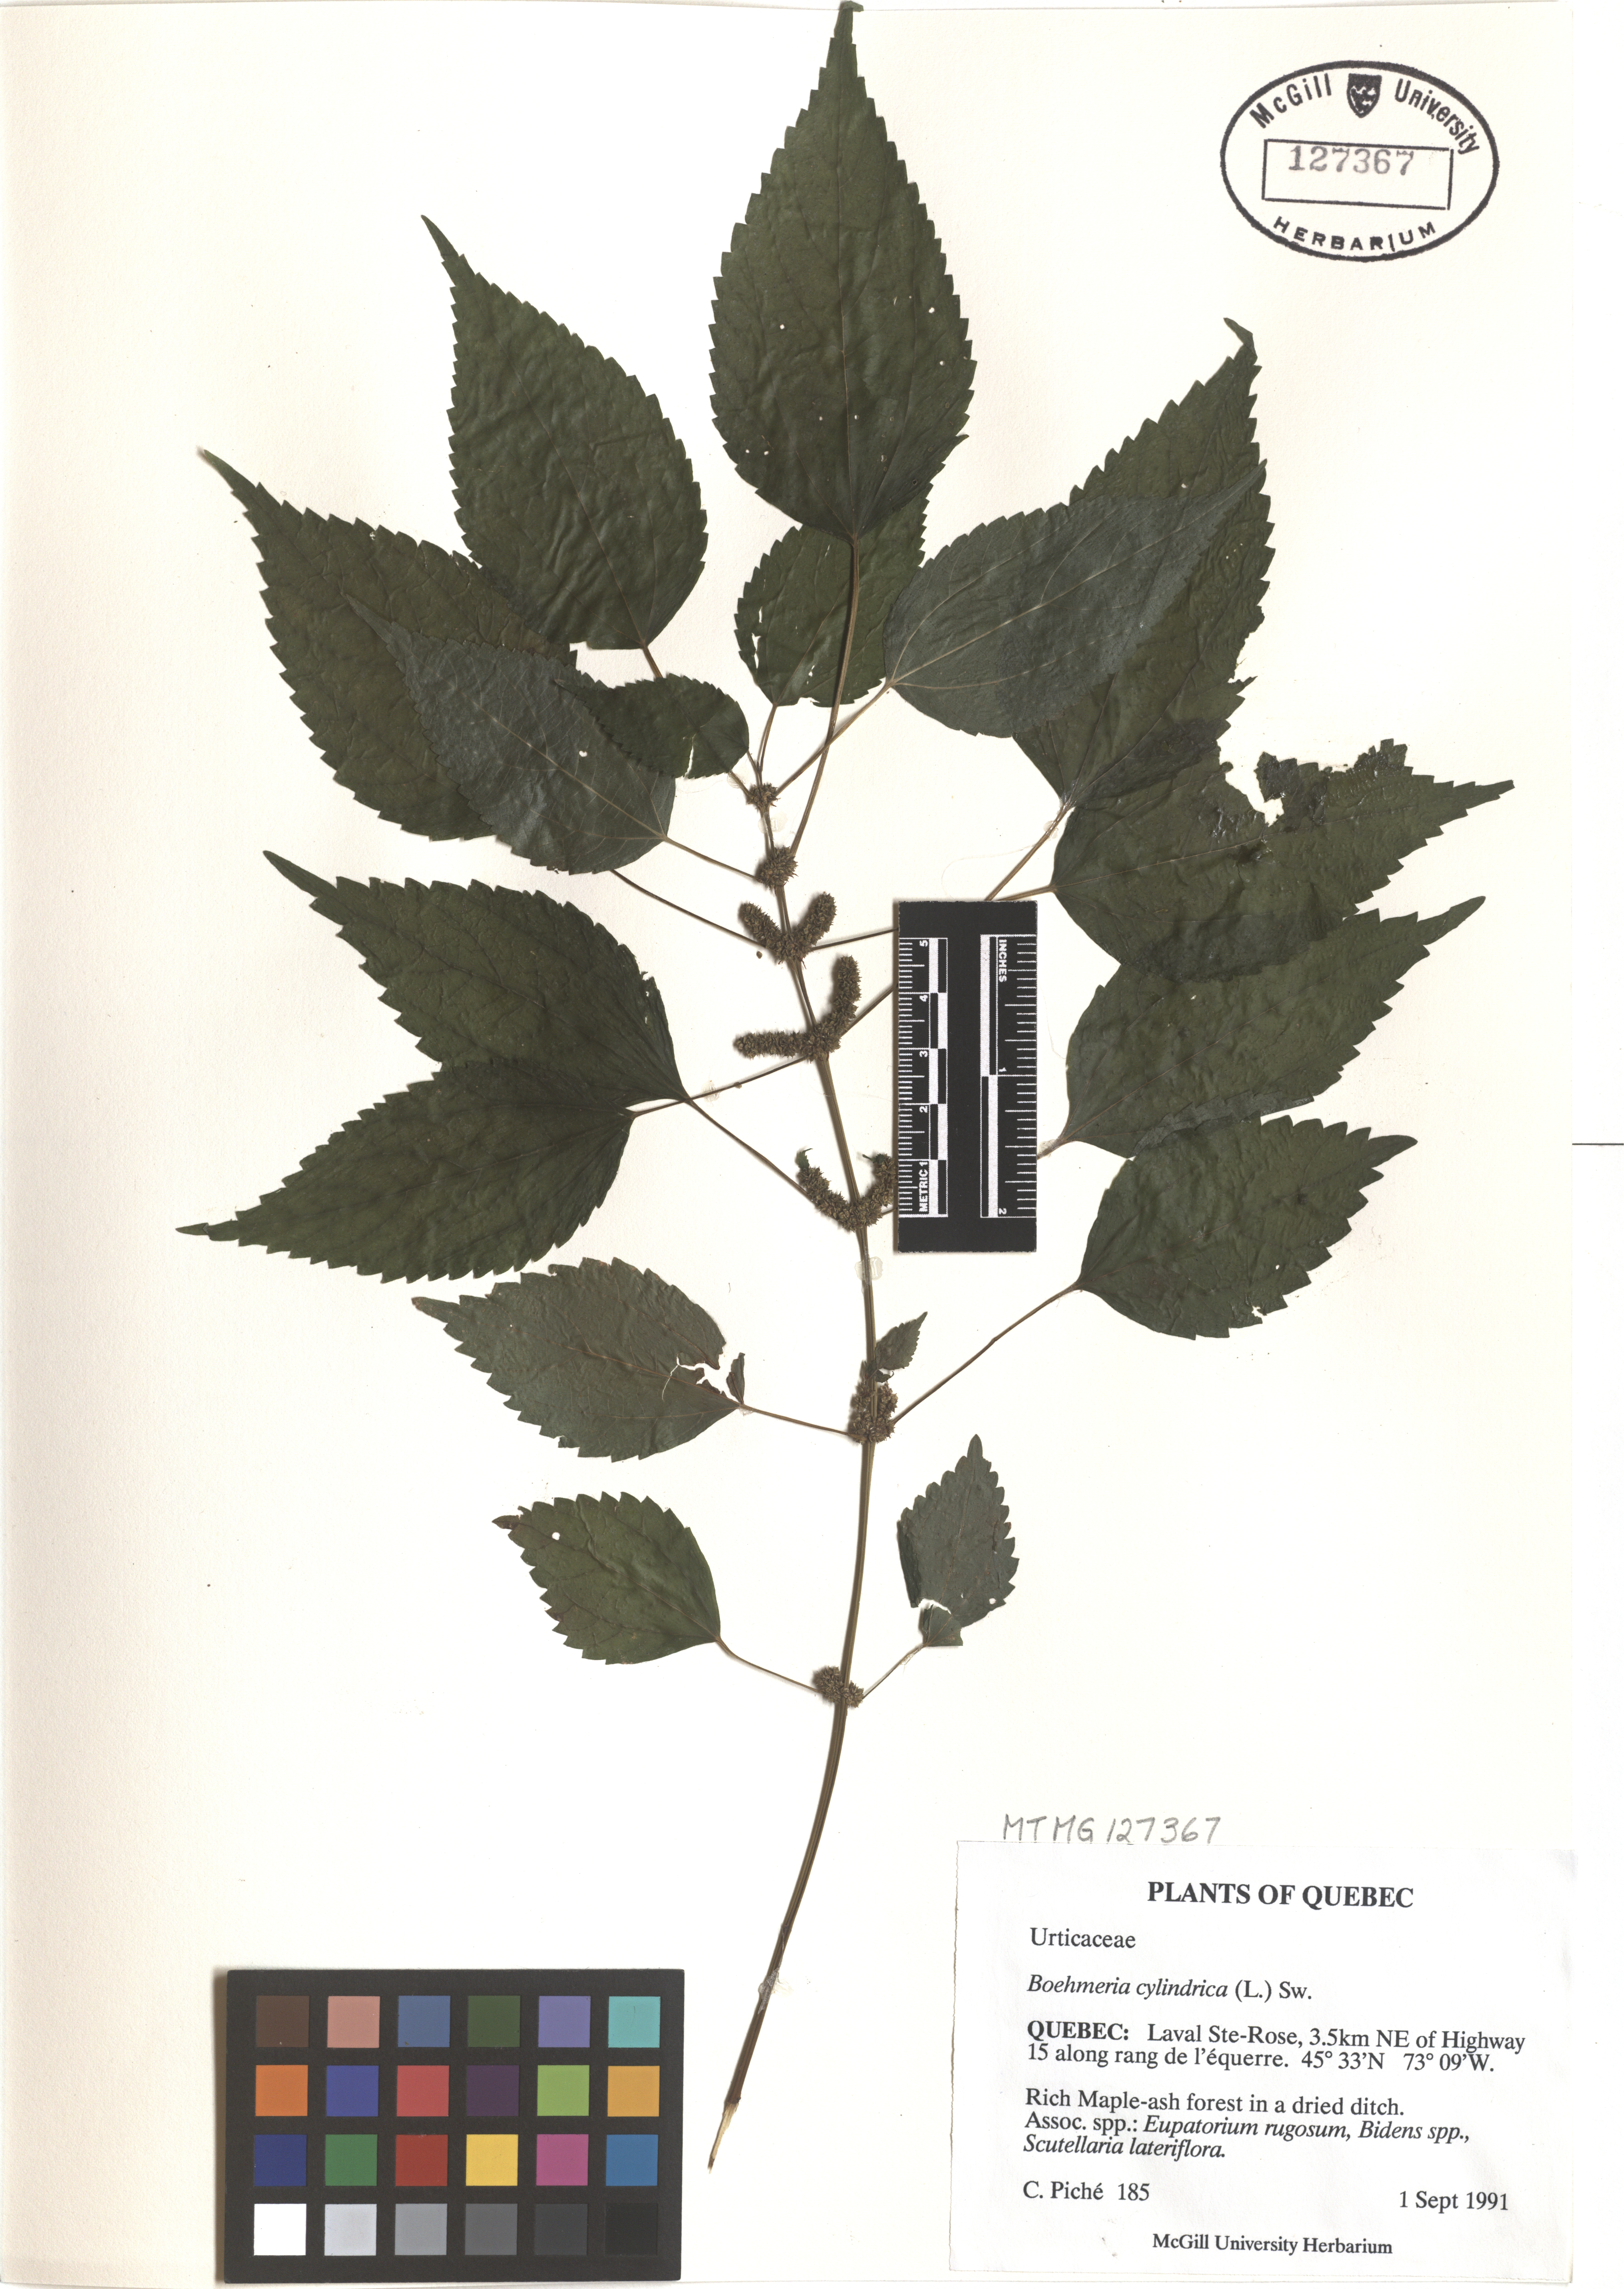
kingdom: Plantae
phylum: Tracheophyta
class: Magnoliopsida
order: Rosales
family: Urticaceae
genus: Boehmeria
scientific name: Boehmeria cylindrica
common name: Bog-hemp
